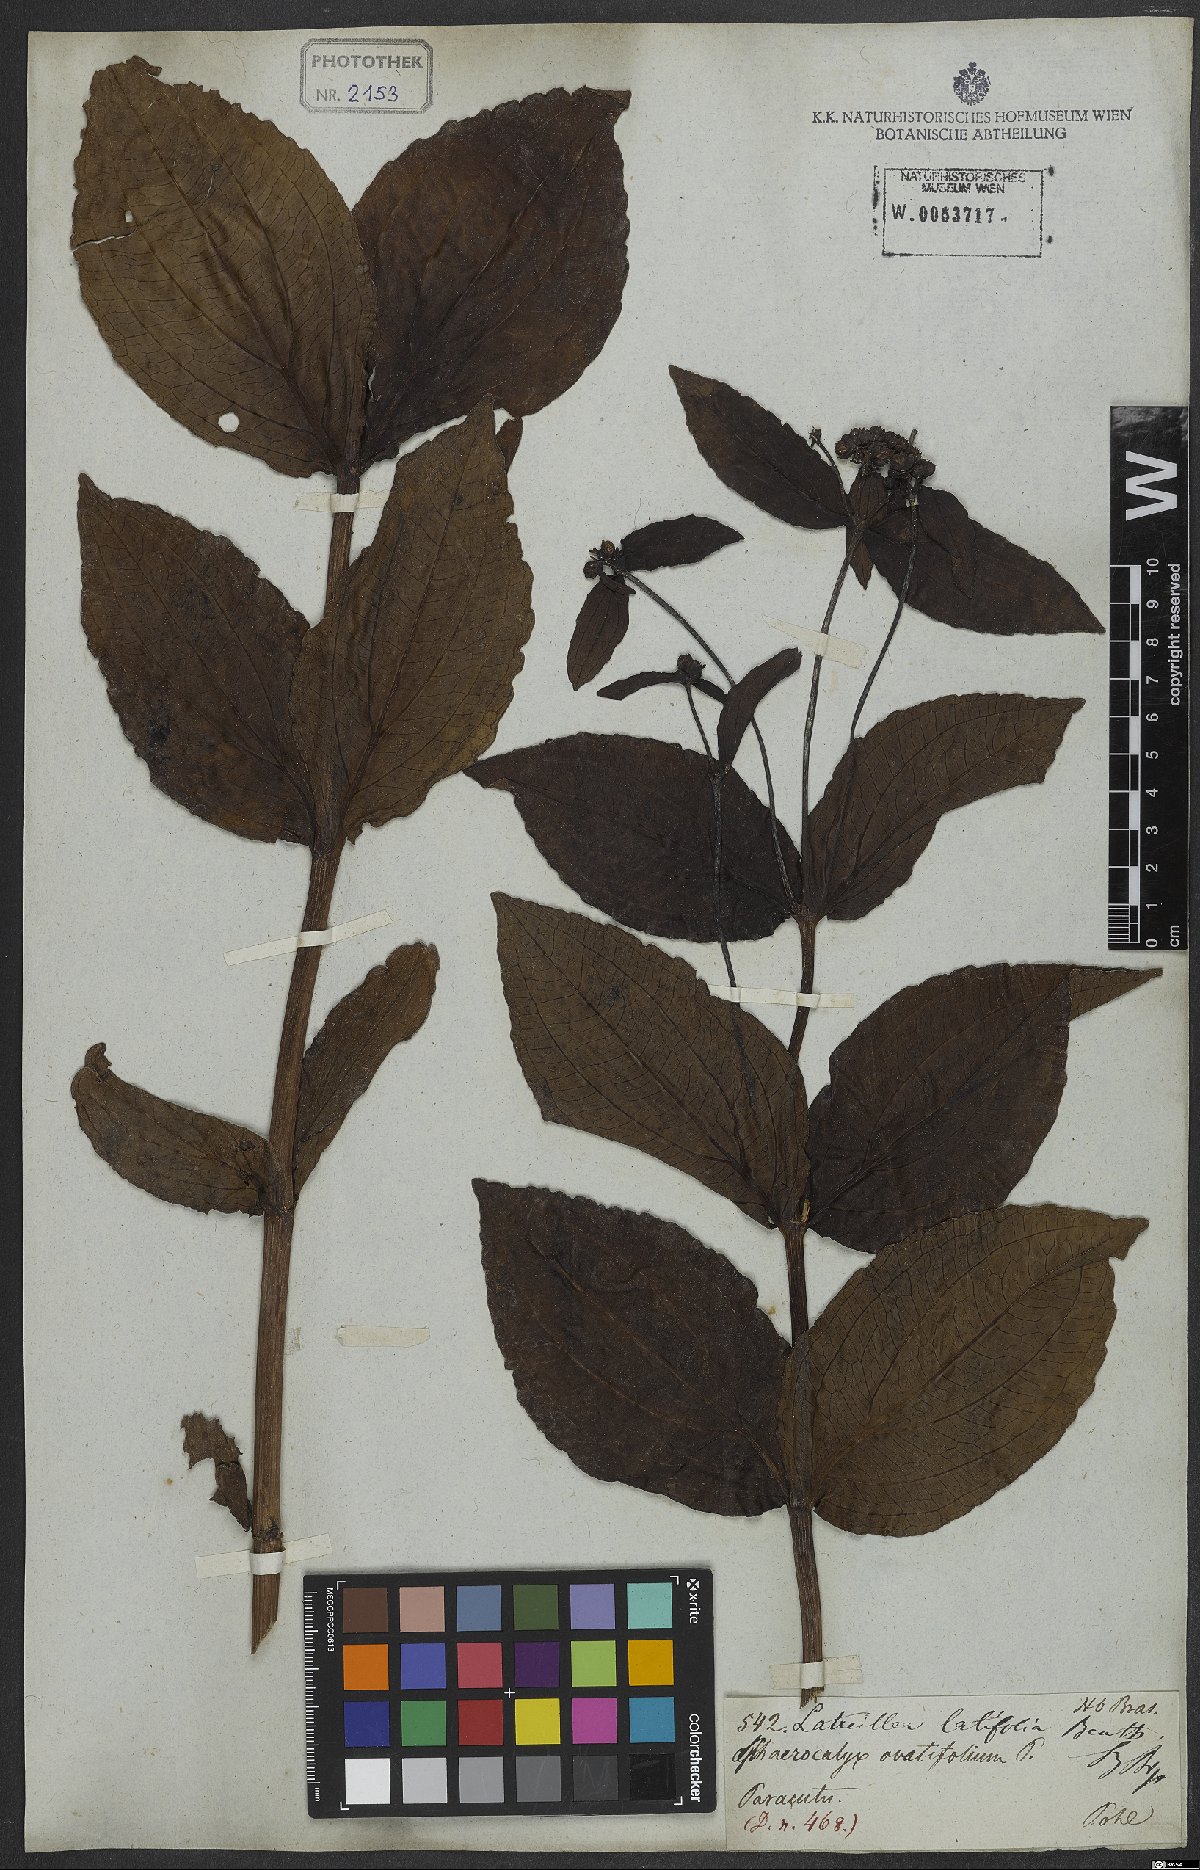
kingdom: Plantae
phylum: Tracheophyta
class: Magnoliopsida
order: Asterales
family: Asteraceae
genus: Ichthyothere
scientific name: Ichthyothere latifolia
